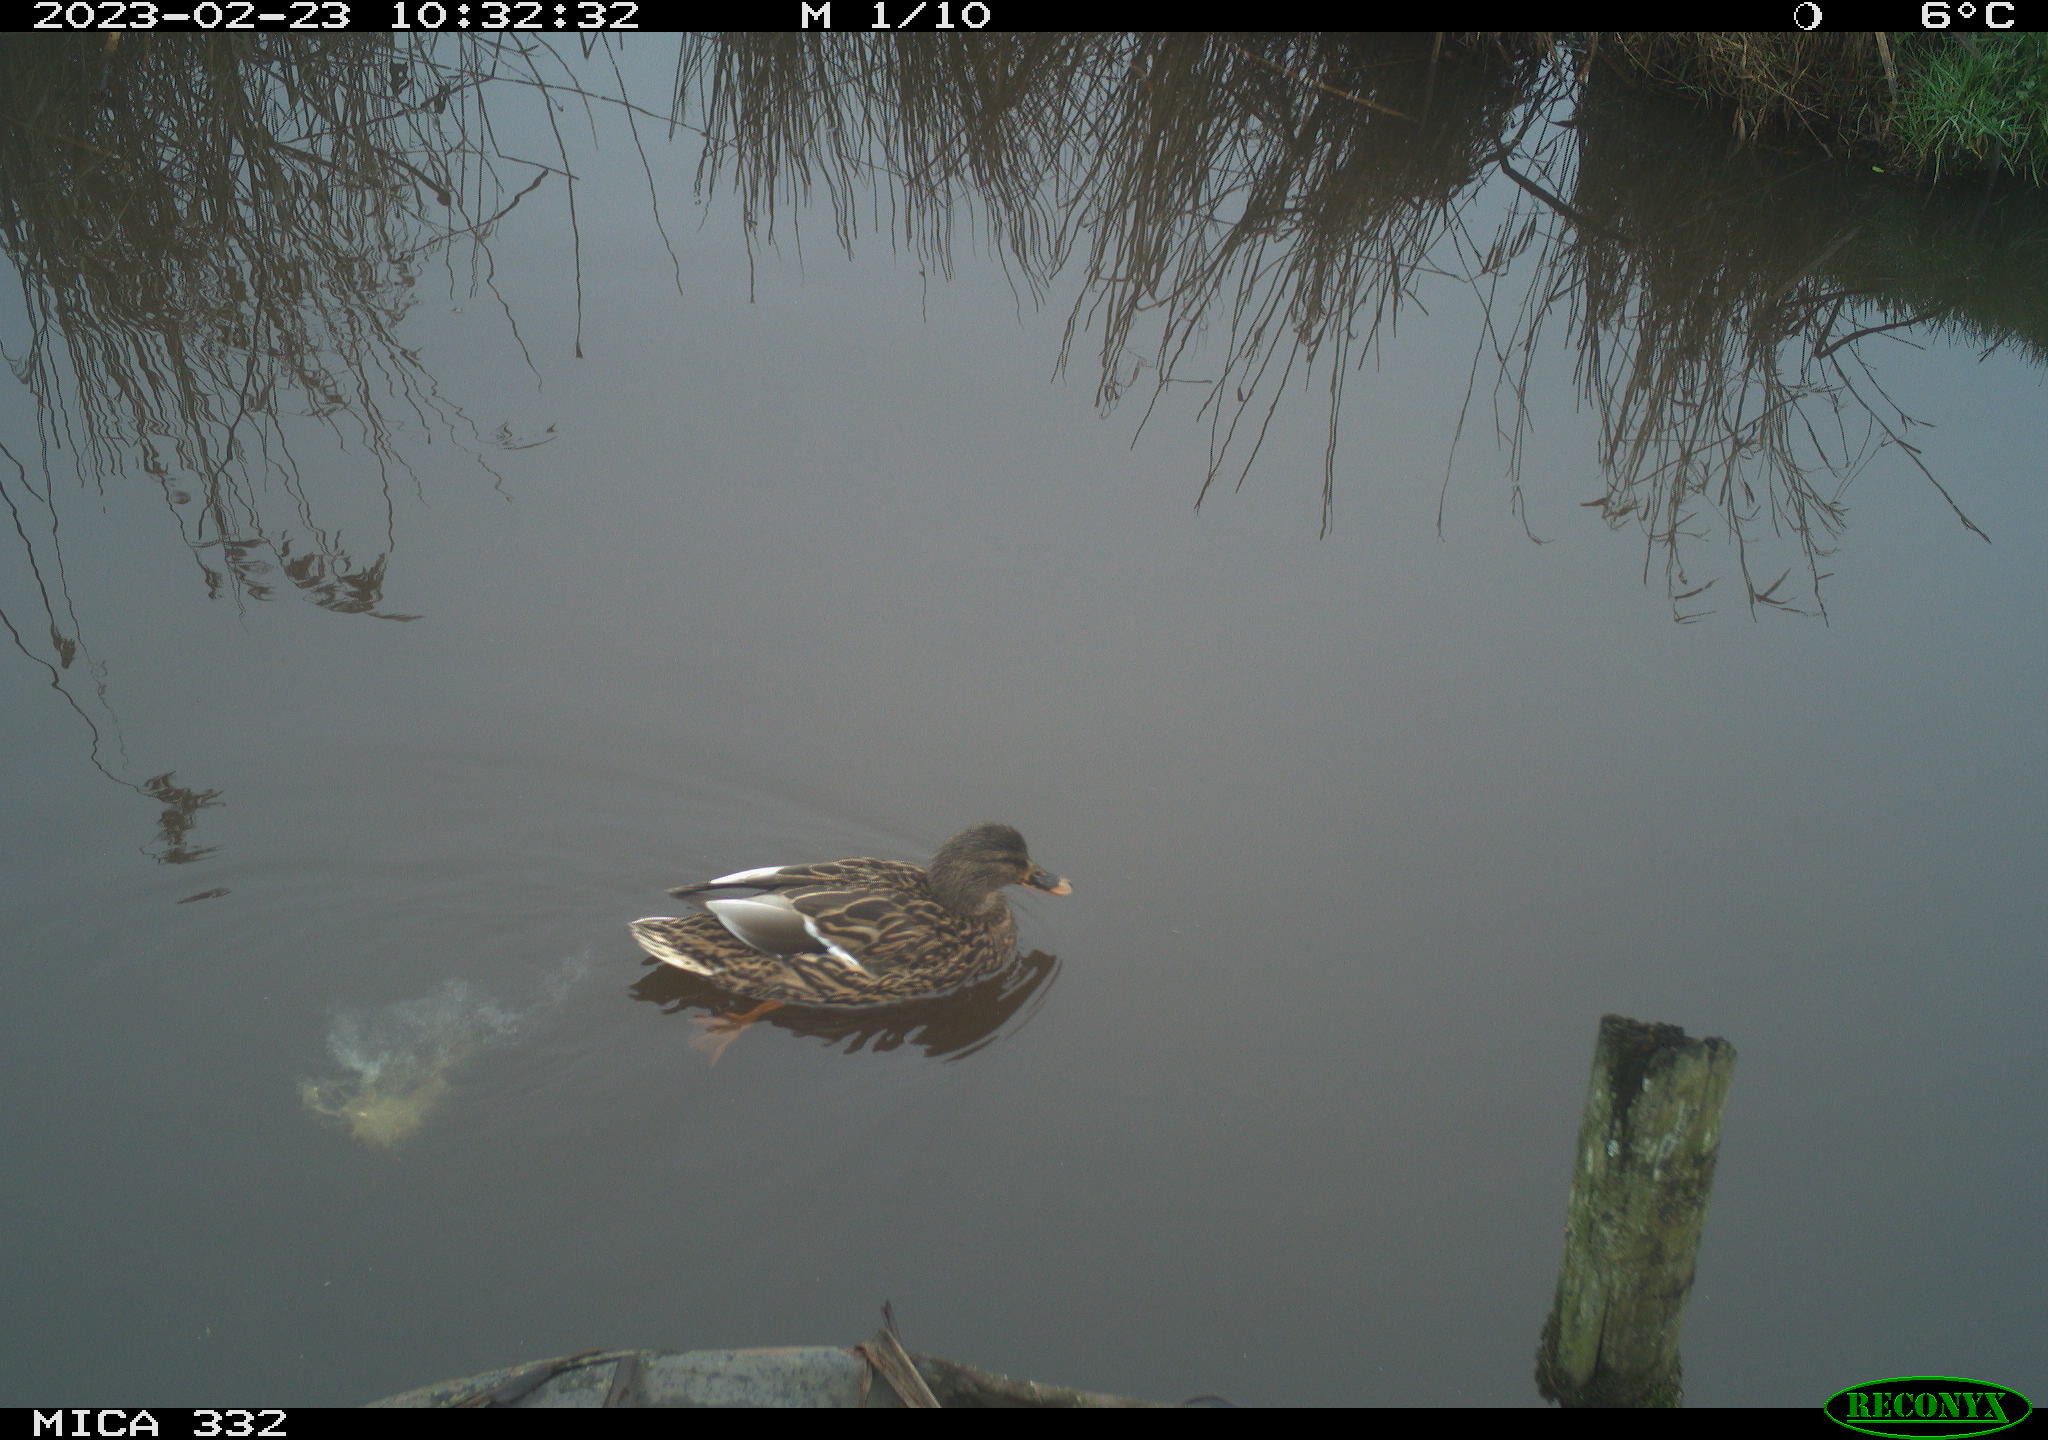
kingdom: Animalia
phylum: Chordata
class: Aves
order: Anseriformes
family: Anatidae
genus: Anas
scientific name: Anas
